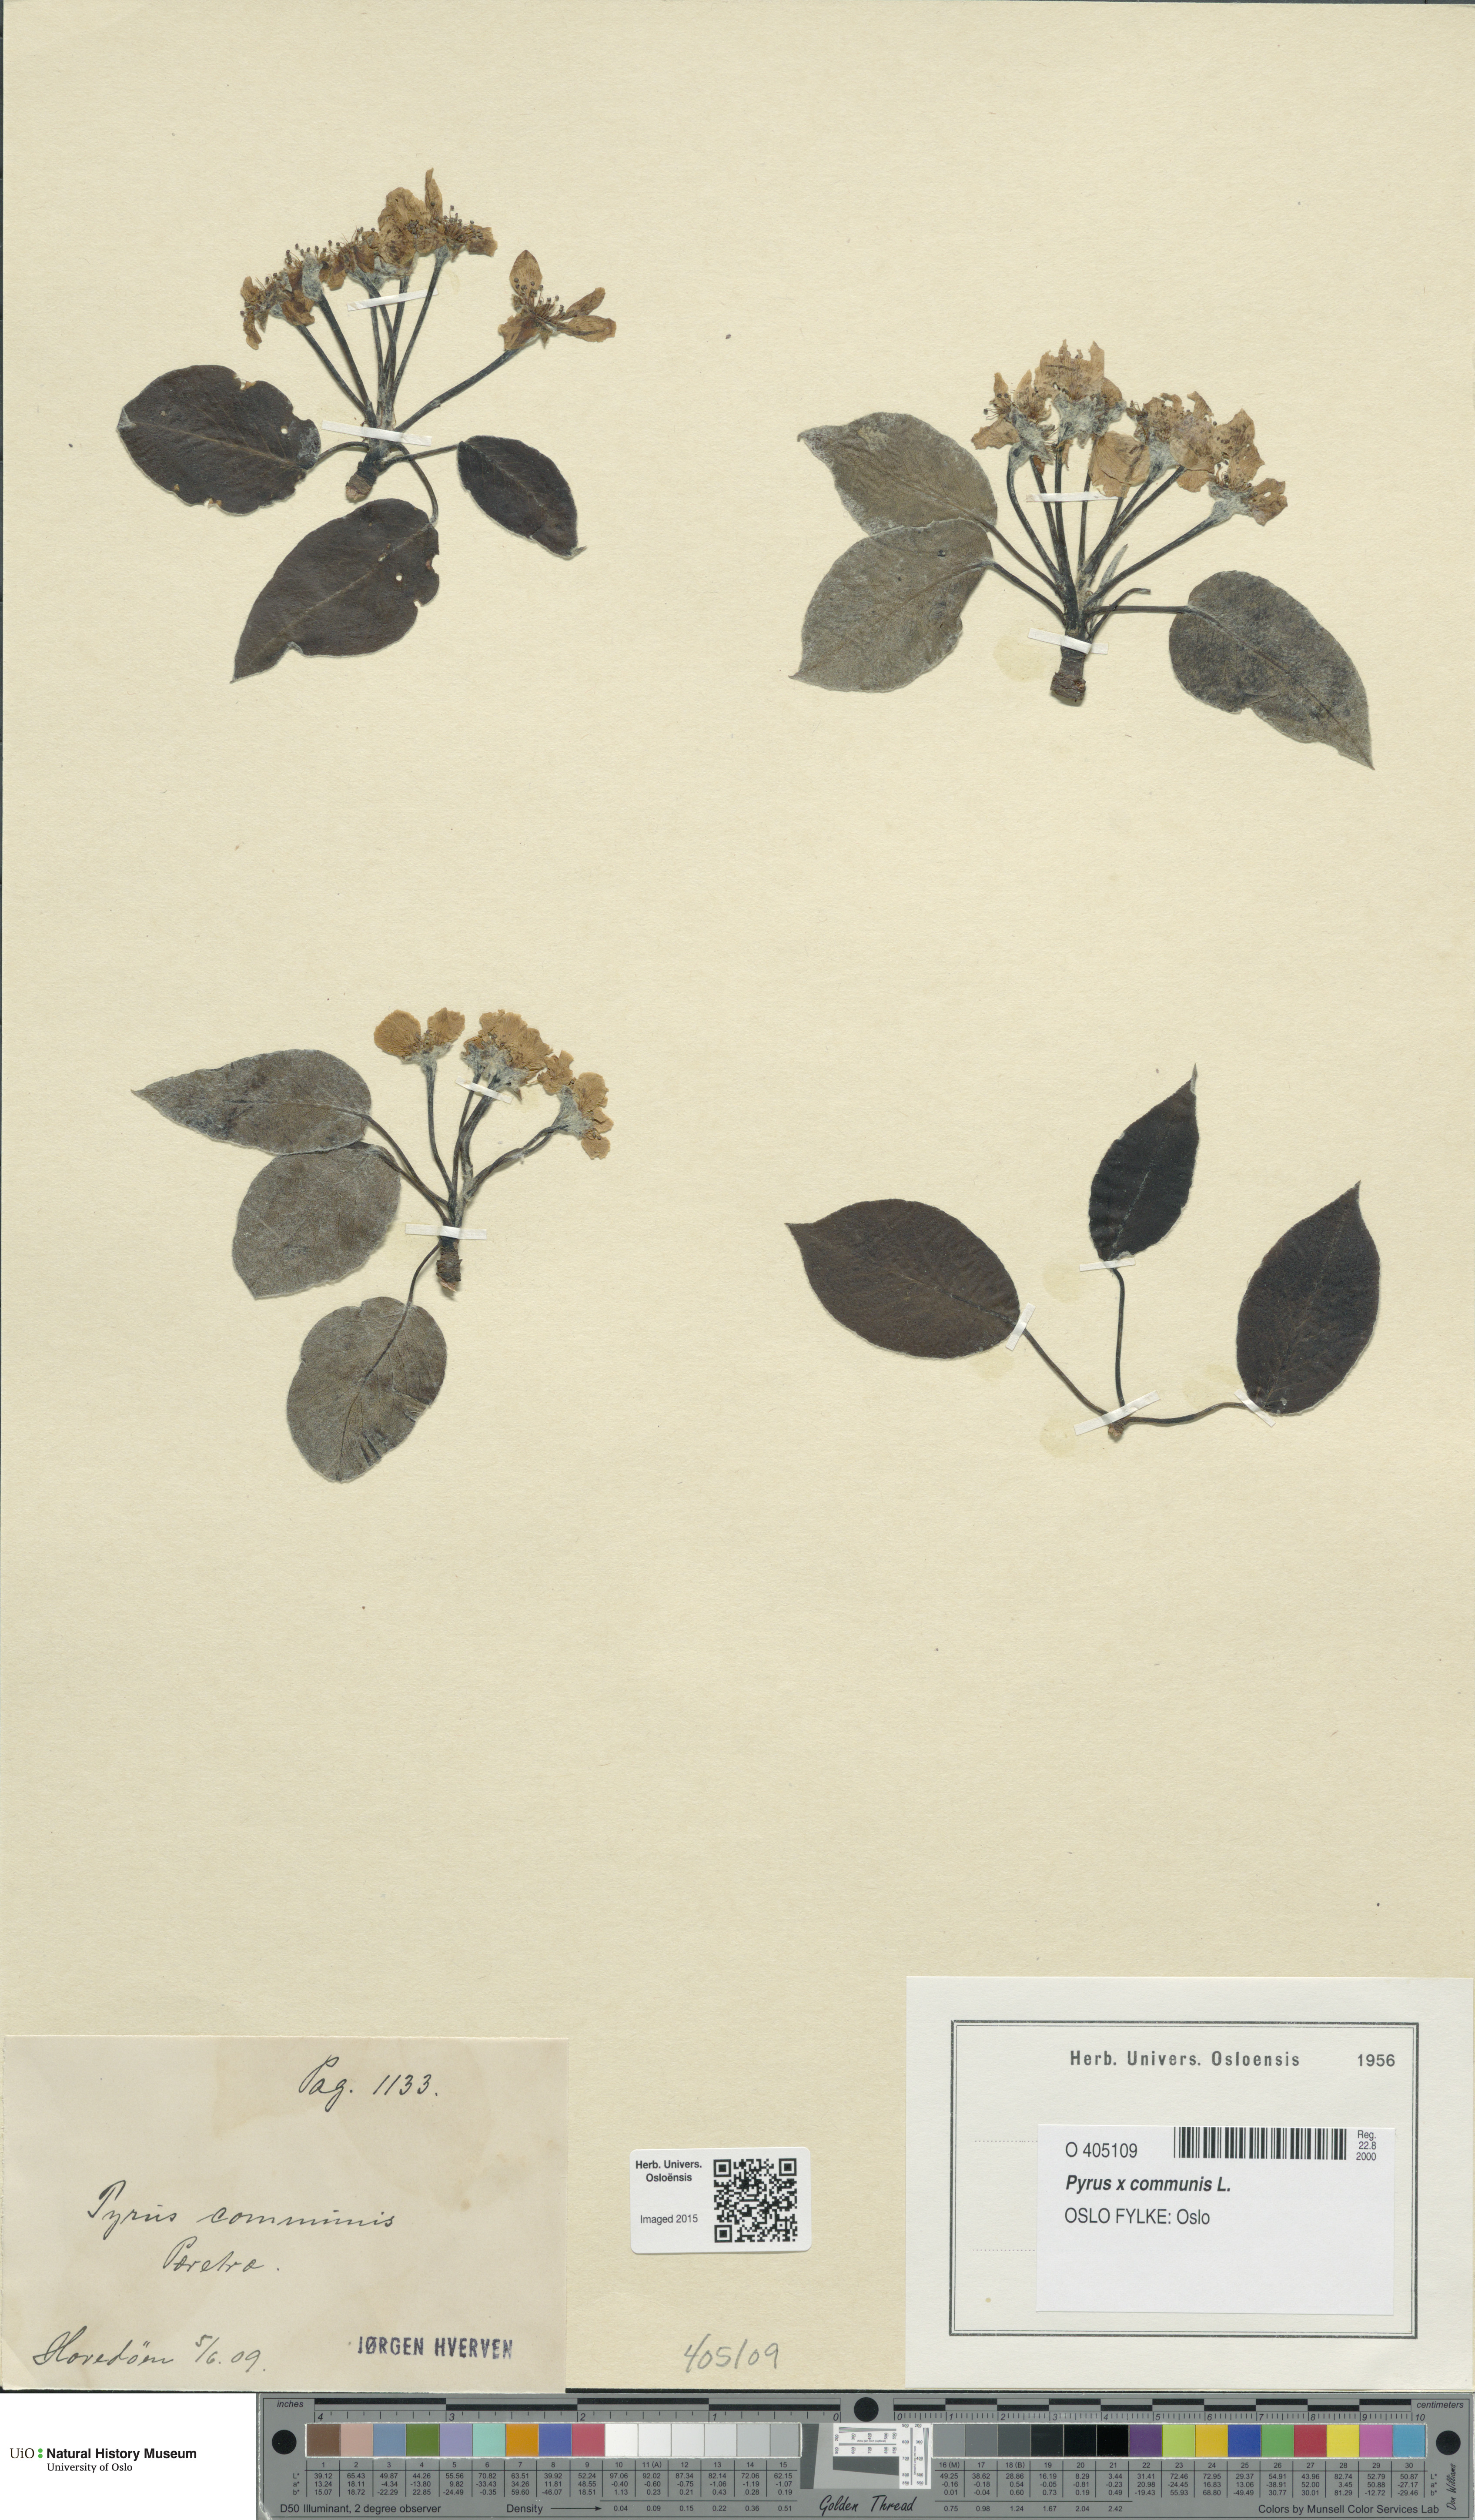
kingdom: Plantae
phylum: Tracheophyta
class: Magnoliopsida
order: Rosales
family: Rosaceae
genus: Pyrus
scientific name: Pyrus communis
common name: Pear
